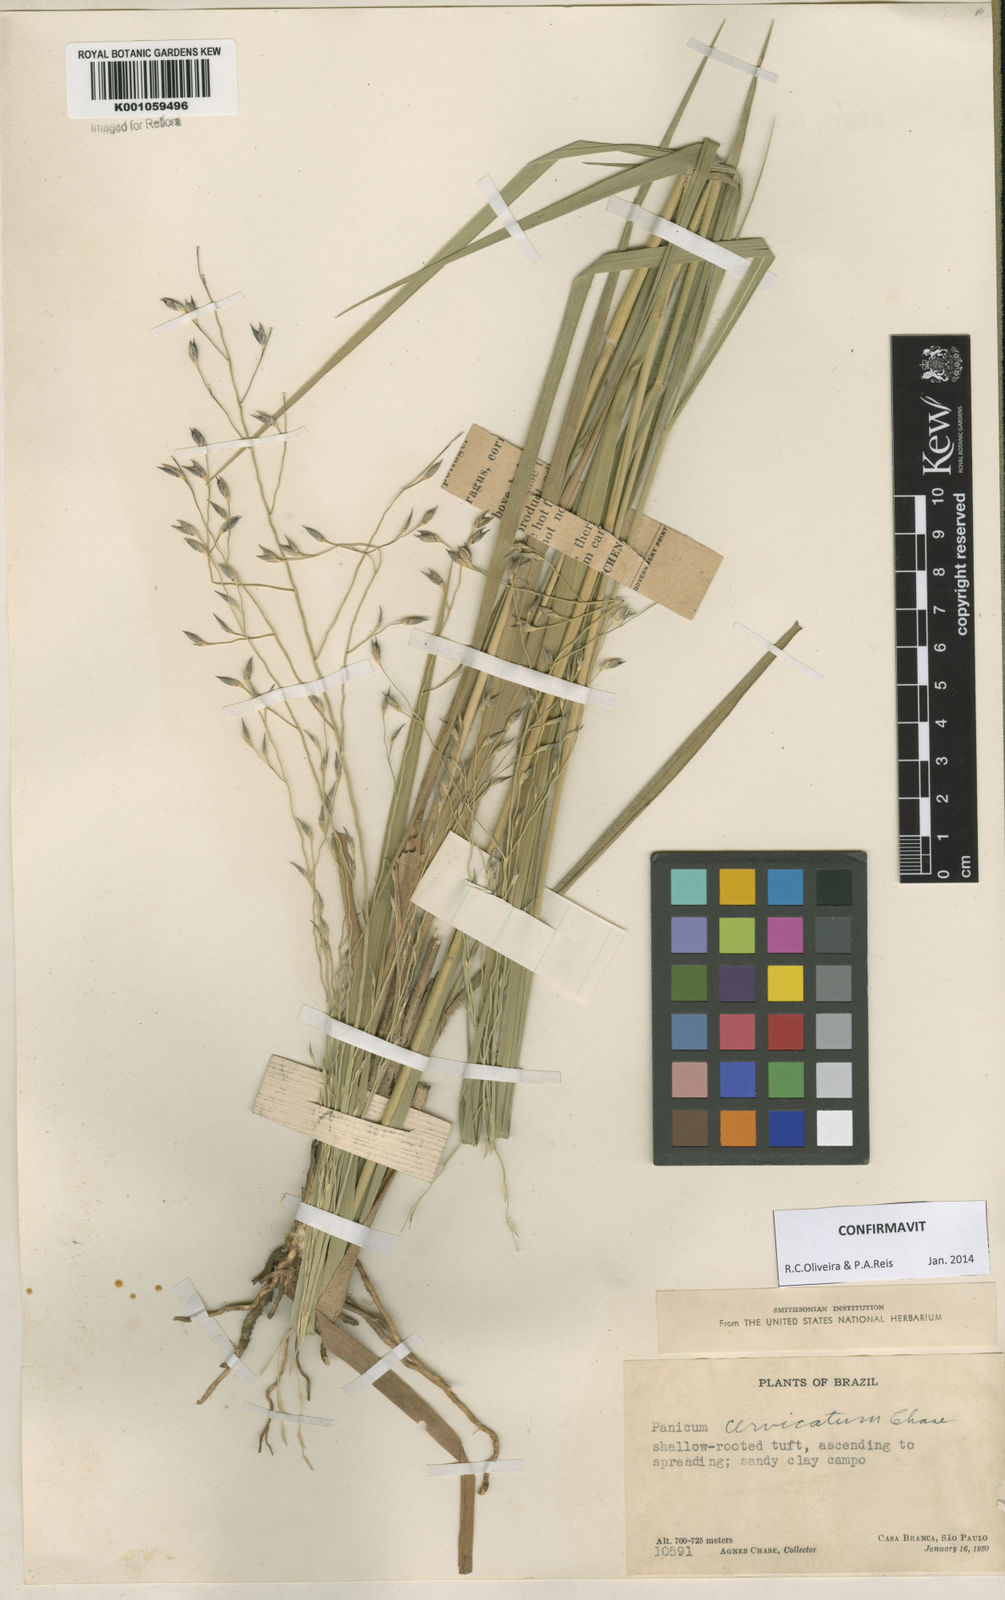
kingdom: Plantae
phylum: Tracheophyta
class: Liliopsida
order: Poales
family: Poaceae
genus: Panicum
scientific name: Panicum cervicatum
